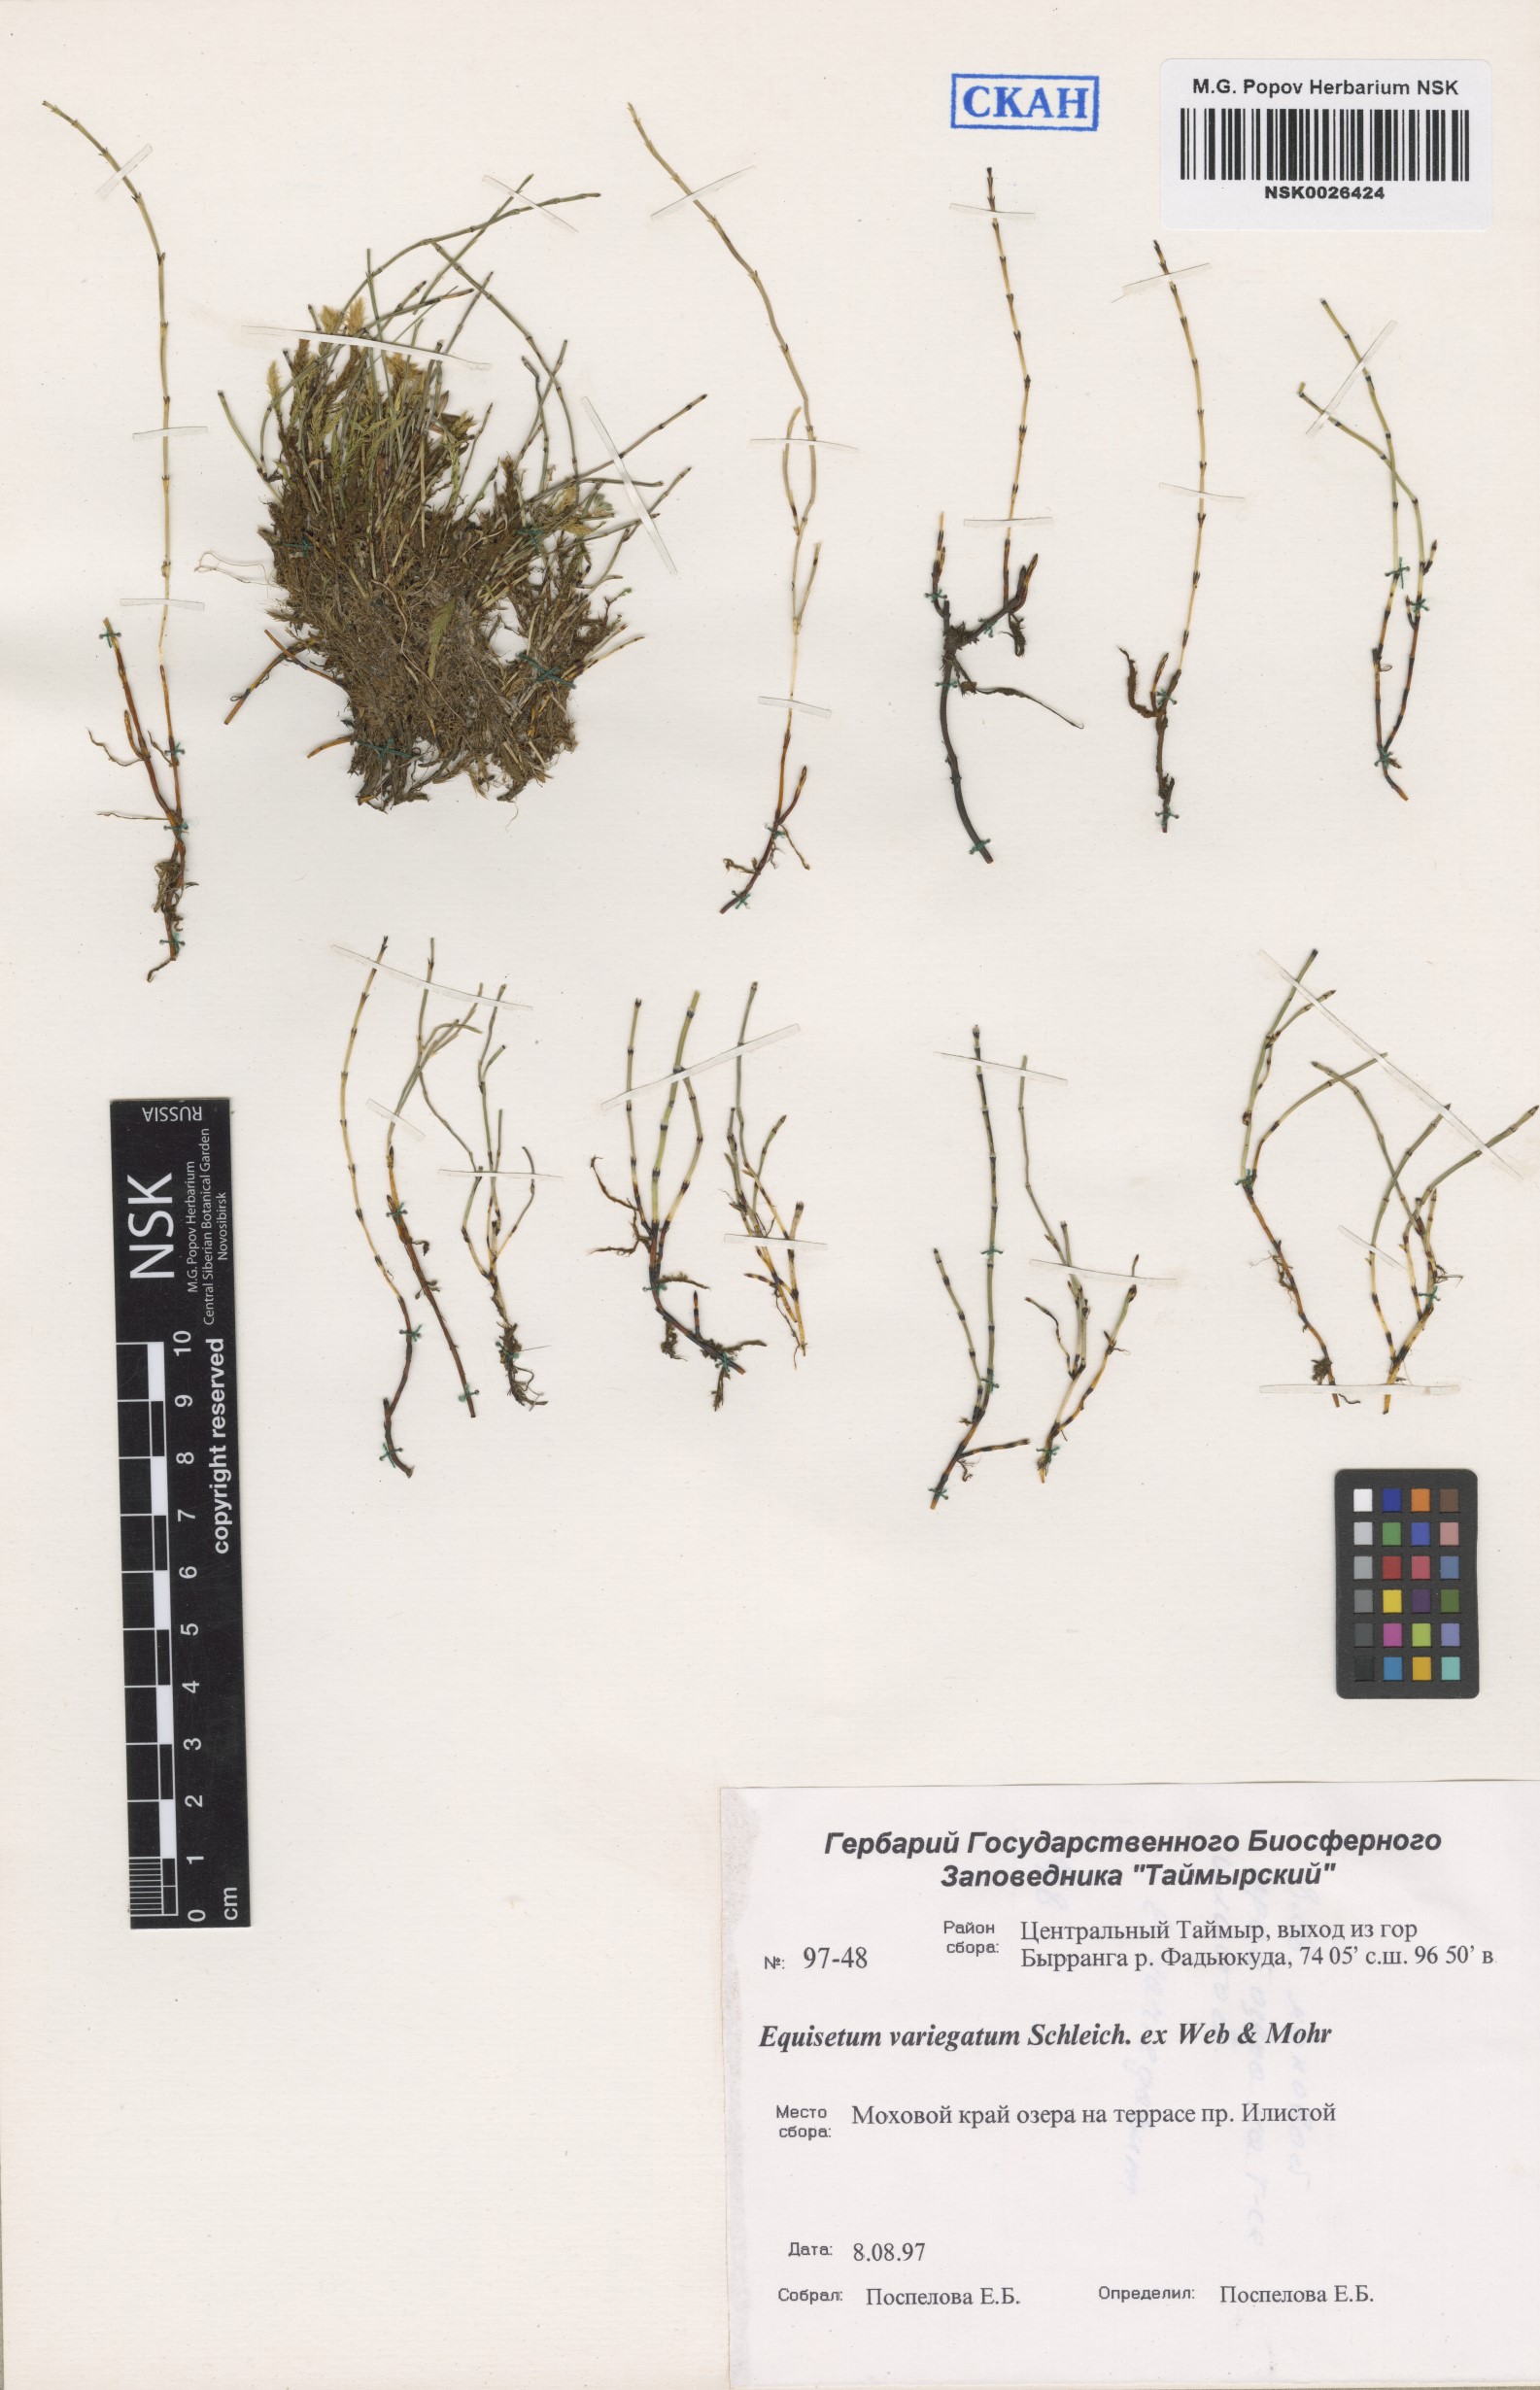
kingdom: Plantae
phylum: Tracheophyta
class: Polypodiopsida
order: Equisetales
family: Equisetaceae
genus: Equisetum
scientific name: Equisetum variegatum
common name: Variegated horsetail
